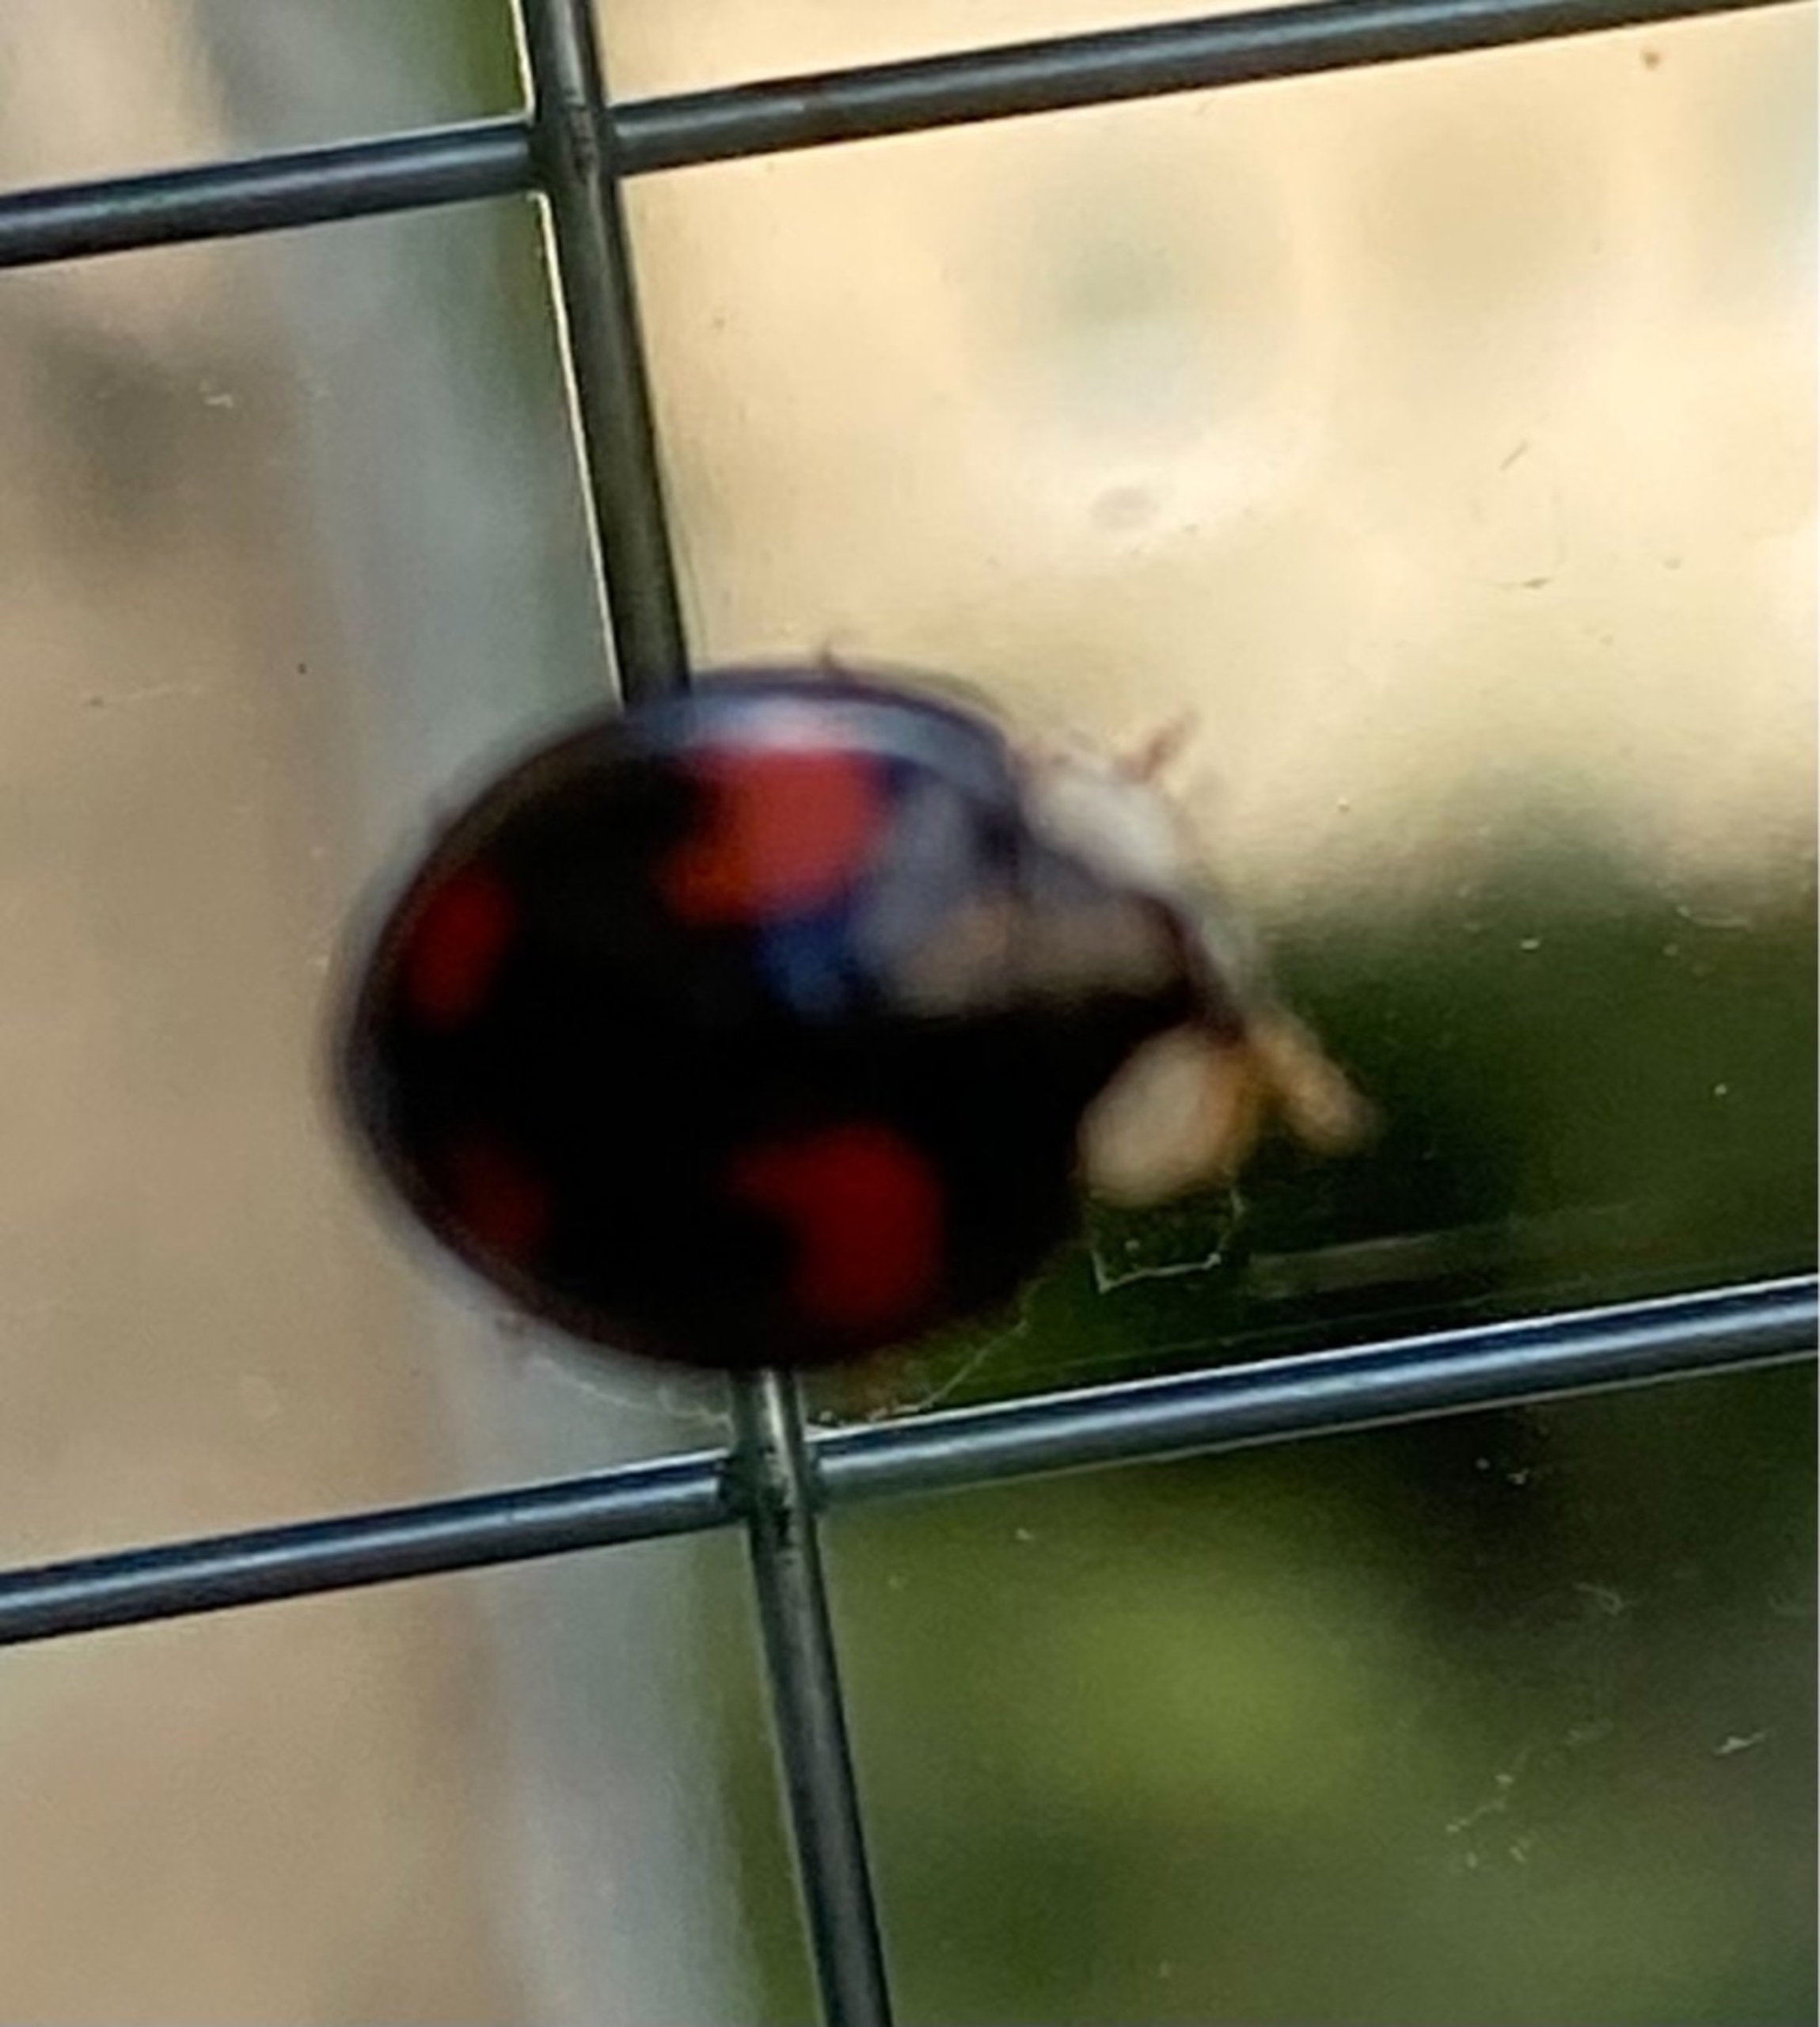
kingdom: Animalia
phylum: Arthropoda
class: Insecta
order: Coleoptera
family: Coccinellidae
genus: Harmonia
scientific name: Harmonia axyridis
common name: Harlekinmariehøne
